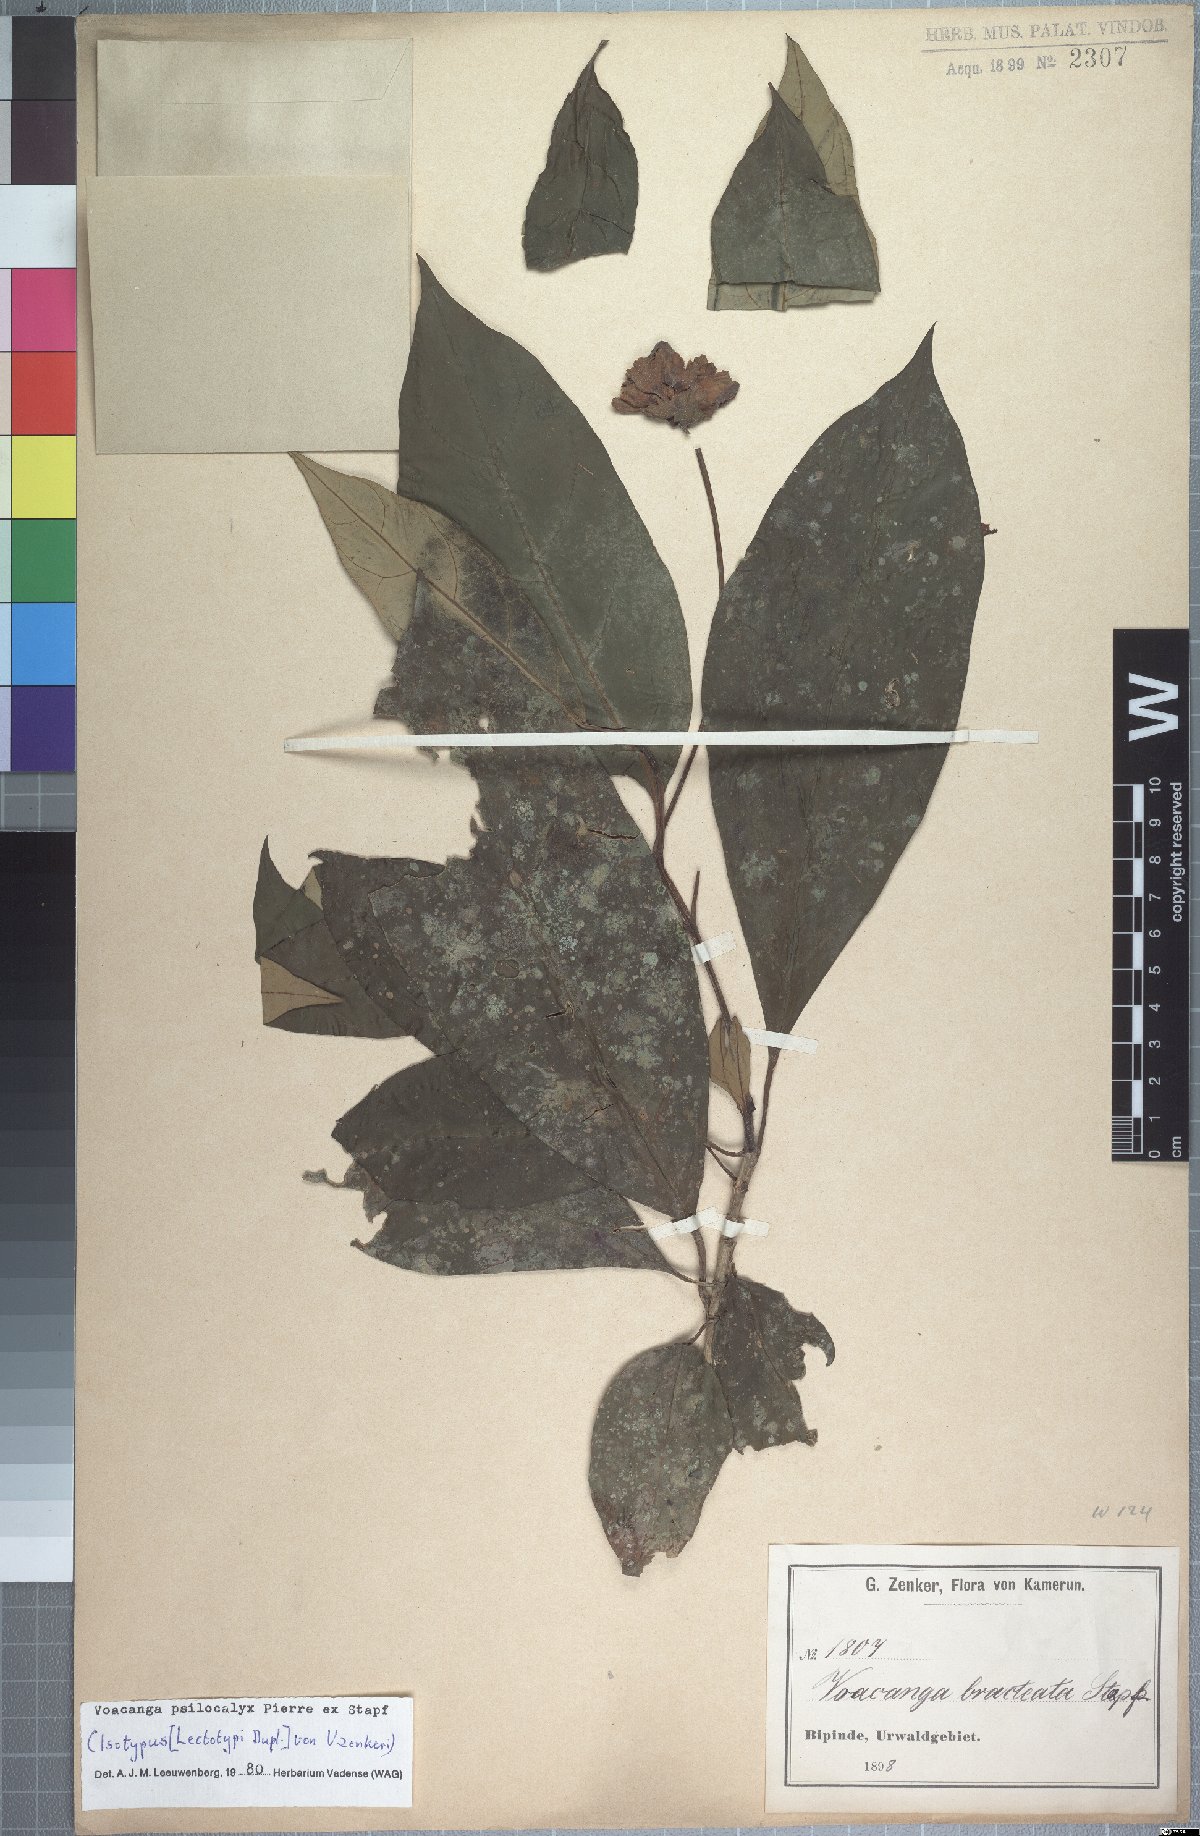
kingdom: Plantae
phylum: Tracheophyta
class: Magnoliopsida
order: Gentianales
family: Apocynaceae
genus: Voacanga
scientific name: Voacanga psilocalyx
